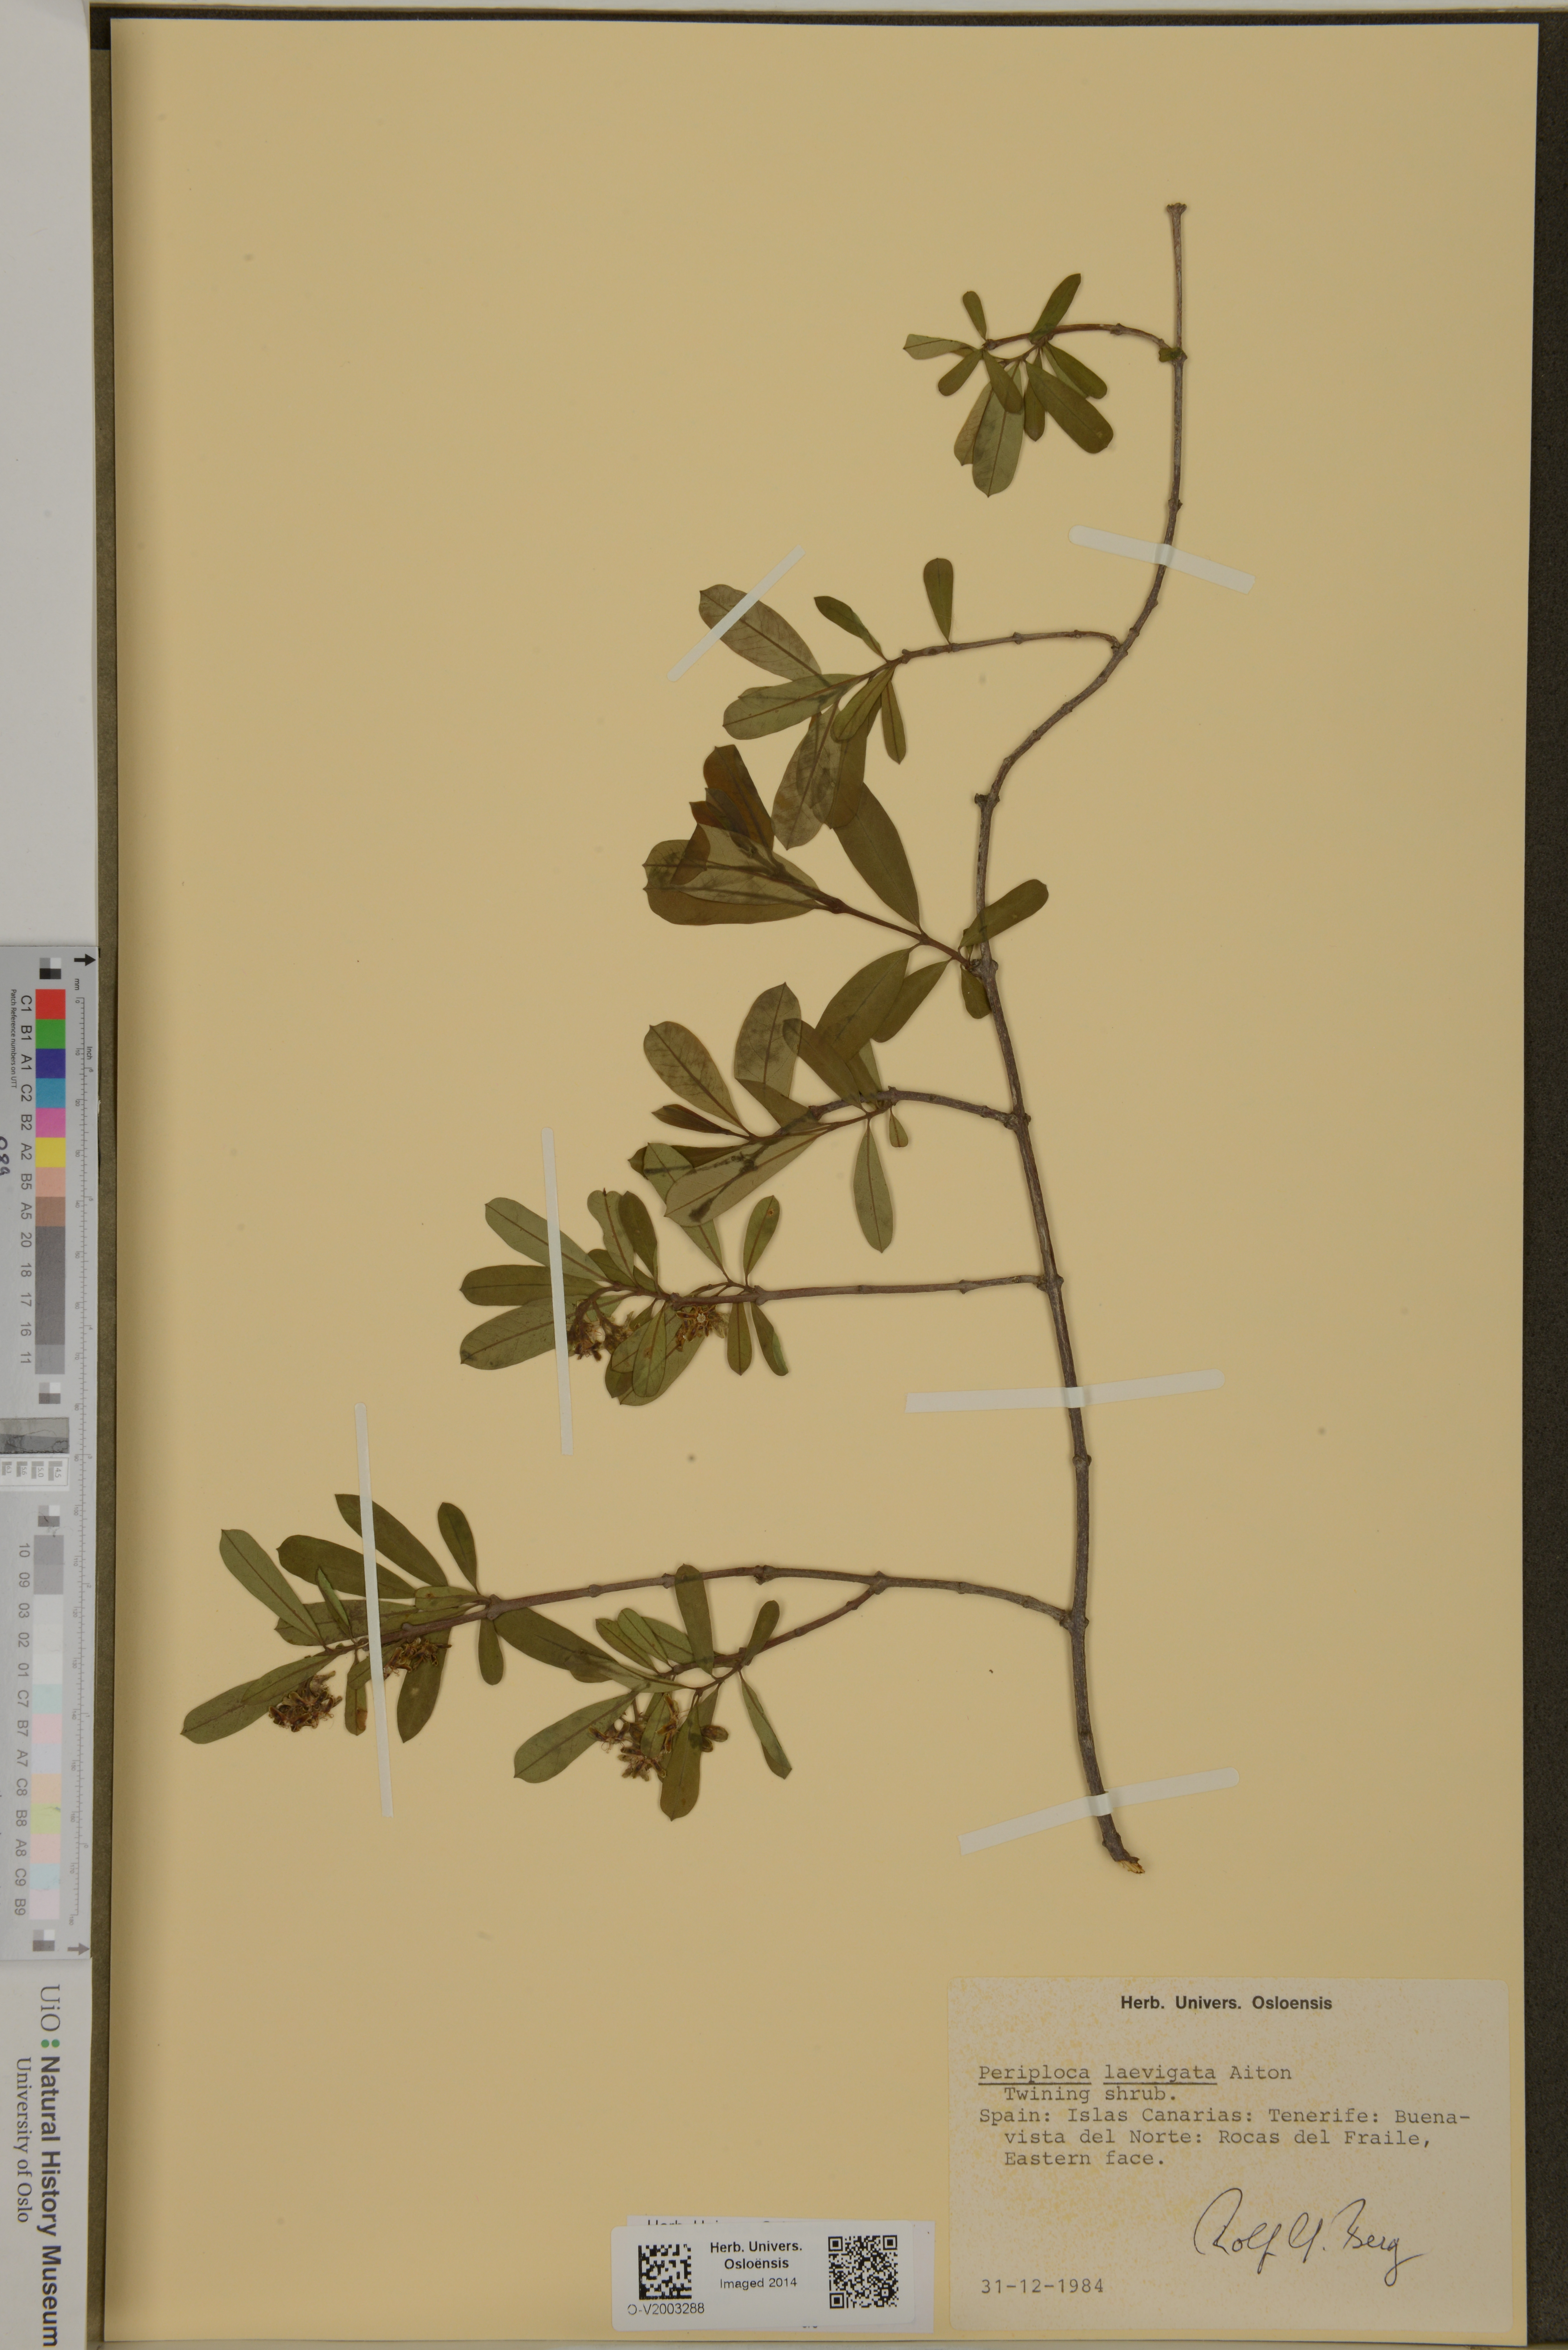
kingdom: Plantae
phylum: Tracheophyta
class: Magnoliopsida
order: Gentianales
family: Apocynaceae
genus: Periploca
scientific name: Periploca laevigata
